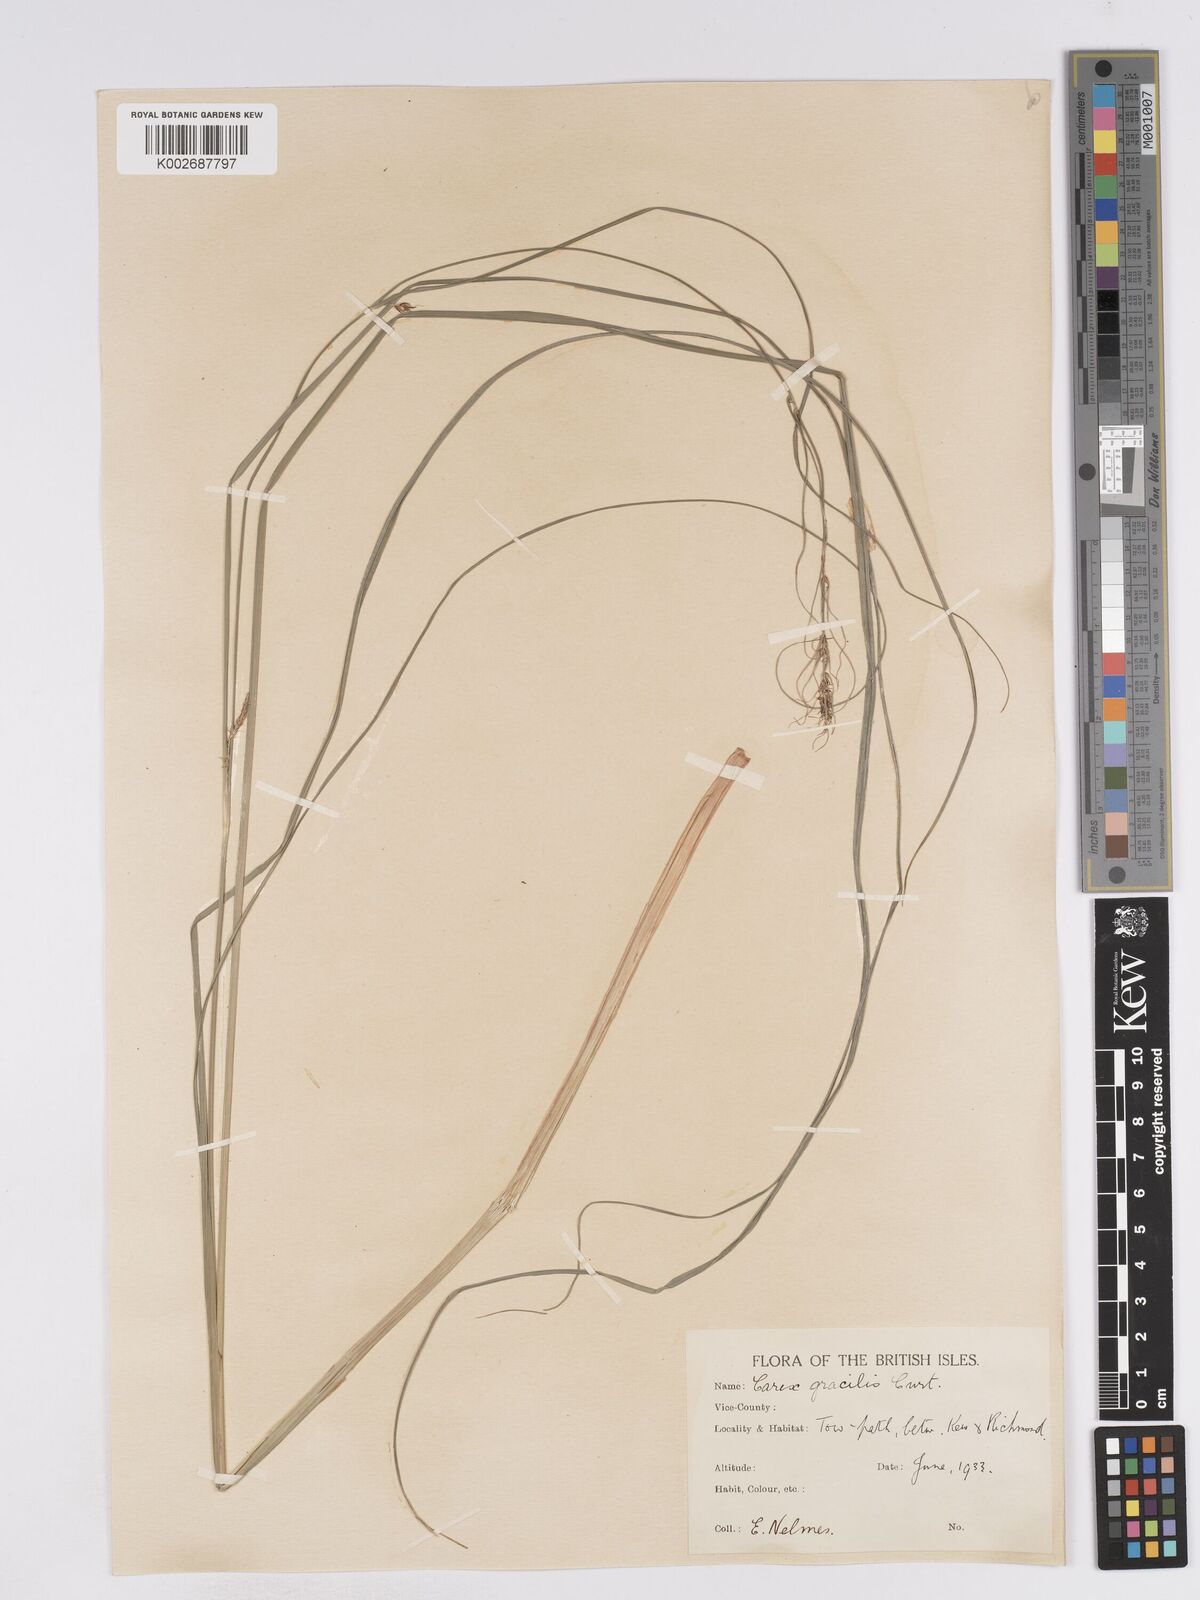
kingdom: Plantae
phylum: Tracheophyta
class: Liliopsida
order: Poales
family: Cyperaceae
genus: Carex
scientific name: Carex acuta
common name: Slender tufted-sedge
